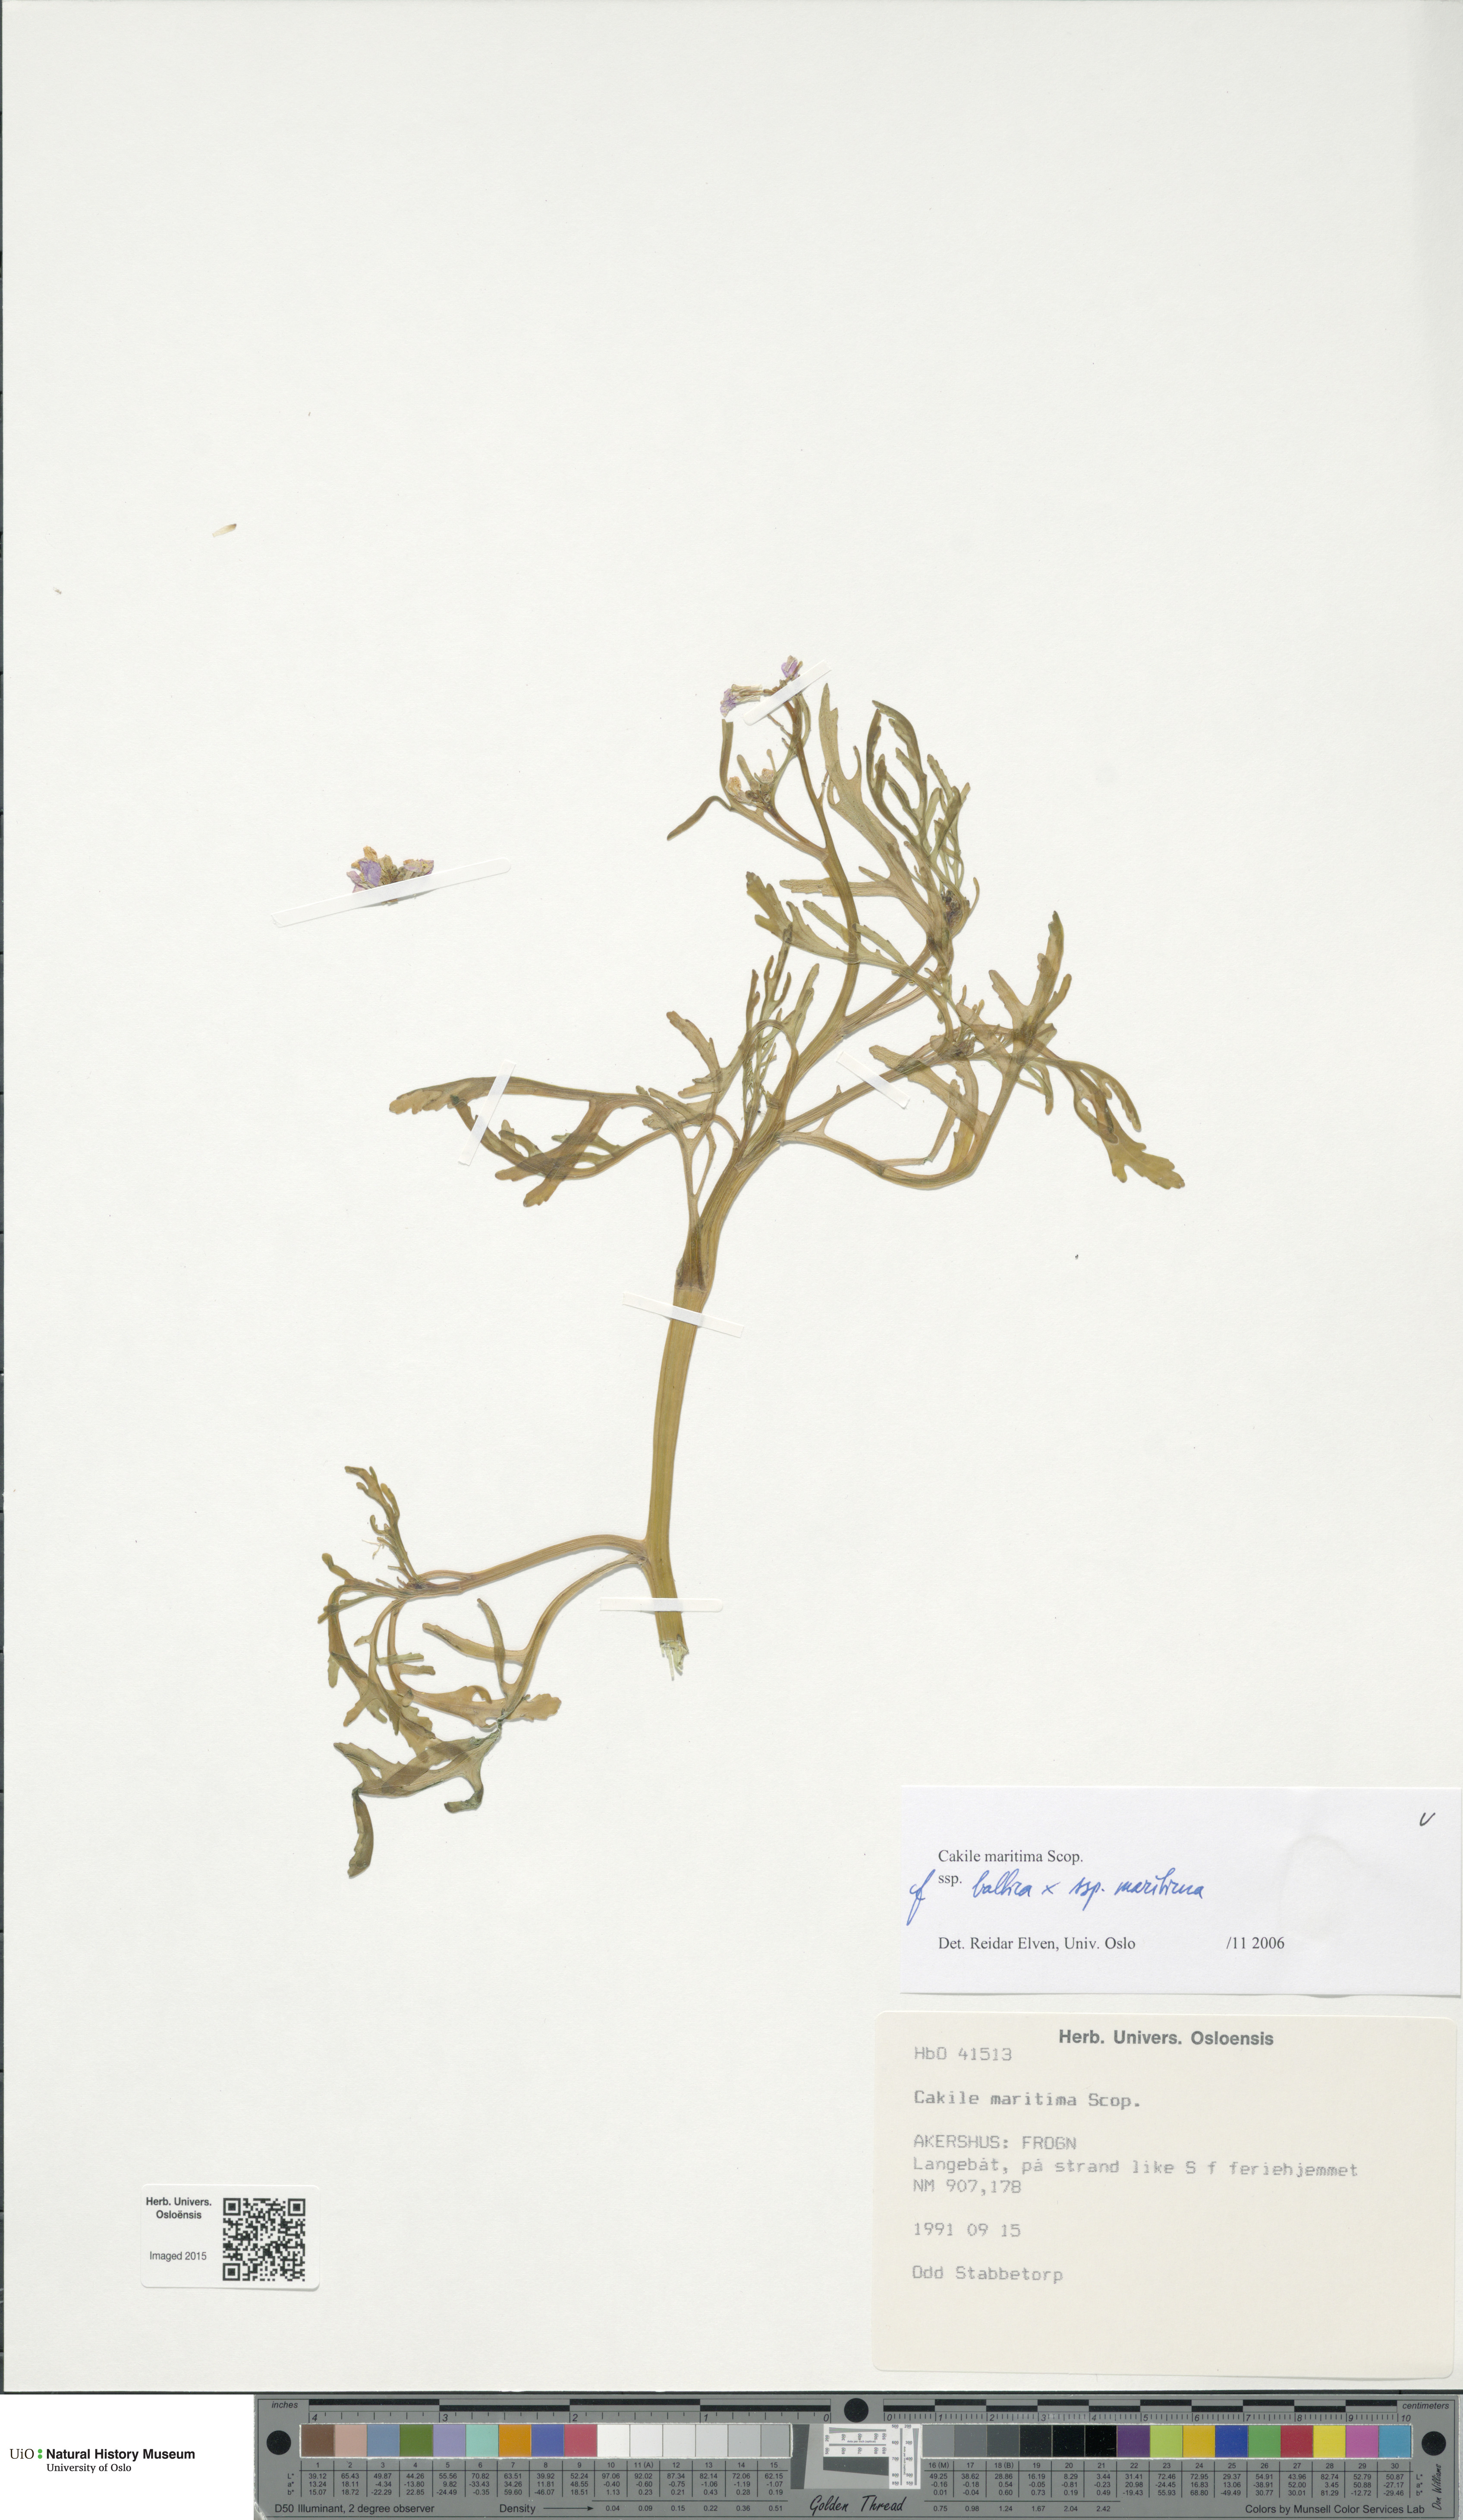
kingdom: Plantae
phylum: Tracheophyta
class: Magnoliopsida
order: Brassicales
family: Brassicaceae
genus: Cakile
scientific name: Cakile
